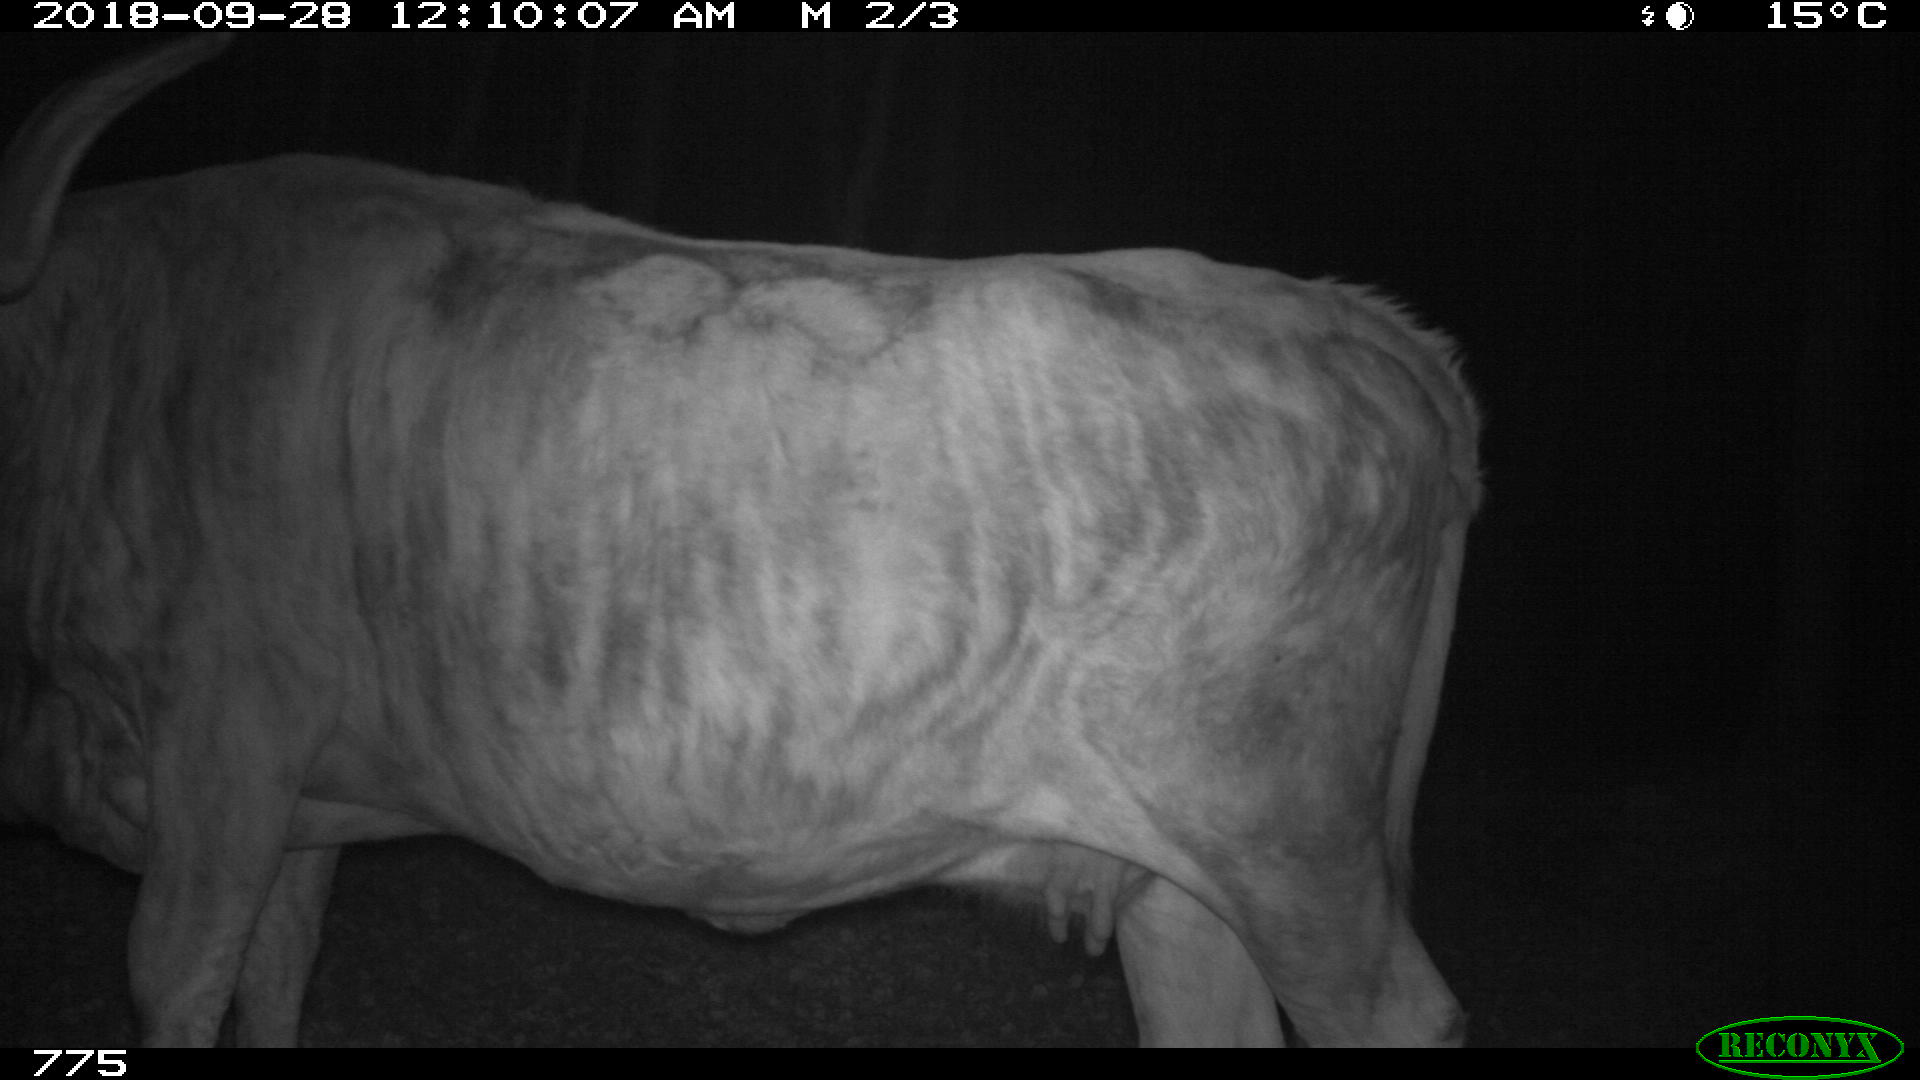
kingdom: Animalia
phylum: Chordata
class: Mammalia
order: Artiodactyla
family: Bovidae
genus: Bos
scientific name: Bos taurus
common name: Domesticated cattle
